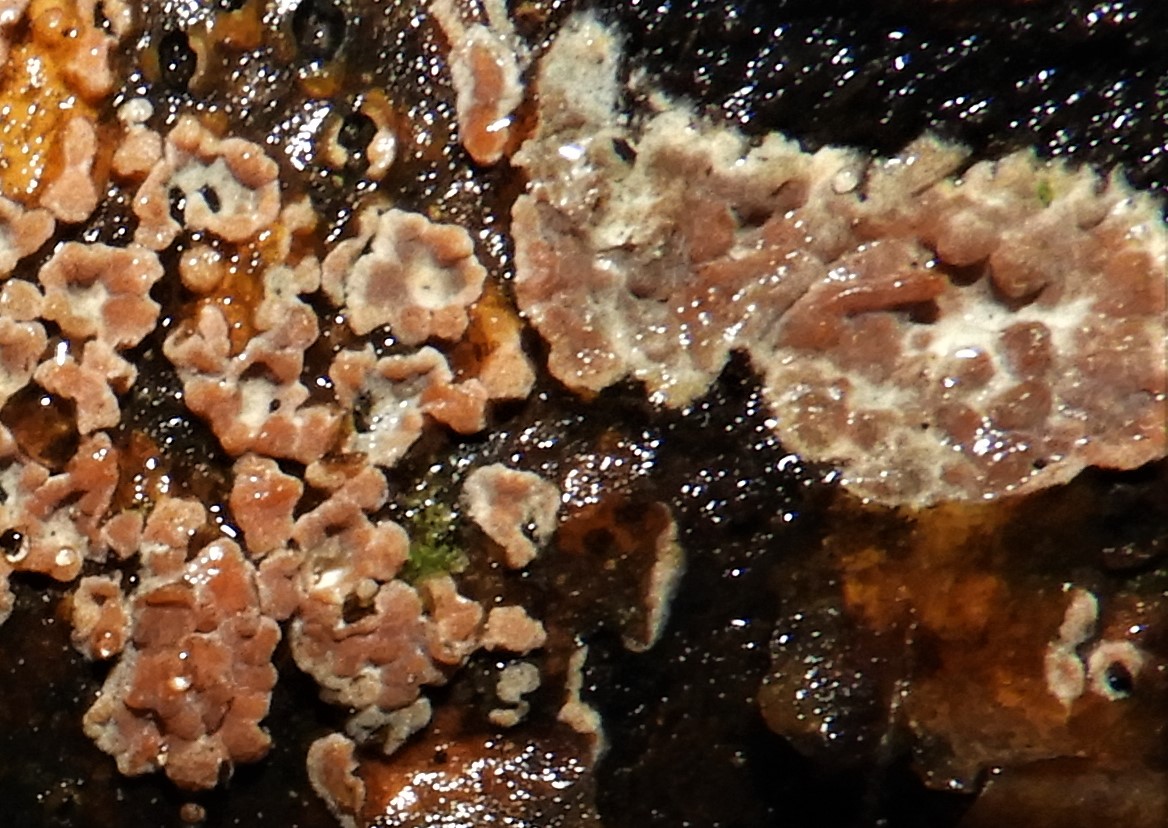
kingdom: Fungi
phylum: Basidiomycota
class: Agaricomycetes
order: Russulales
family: Peniophoraceae
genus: Peniophora
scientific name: Peniophora polygonia
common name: polygon-voksskind
